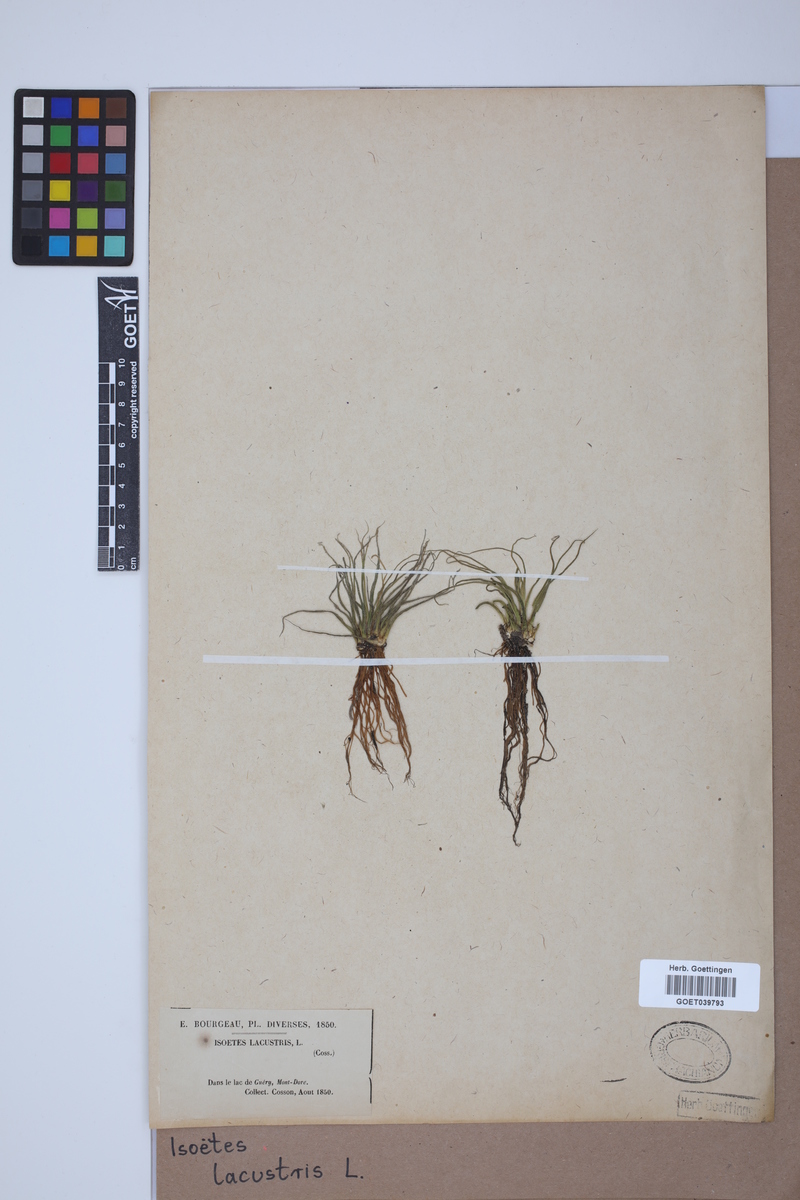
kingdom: Plantae
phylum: Tracheophyta
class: Lycopodiopsida
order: Isoetales
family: Isoetaceae
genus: Isoetes
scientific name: Isoetes lacustris
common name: Common quillwort
